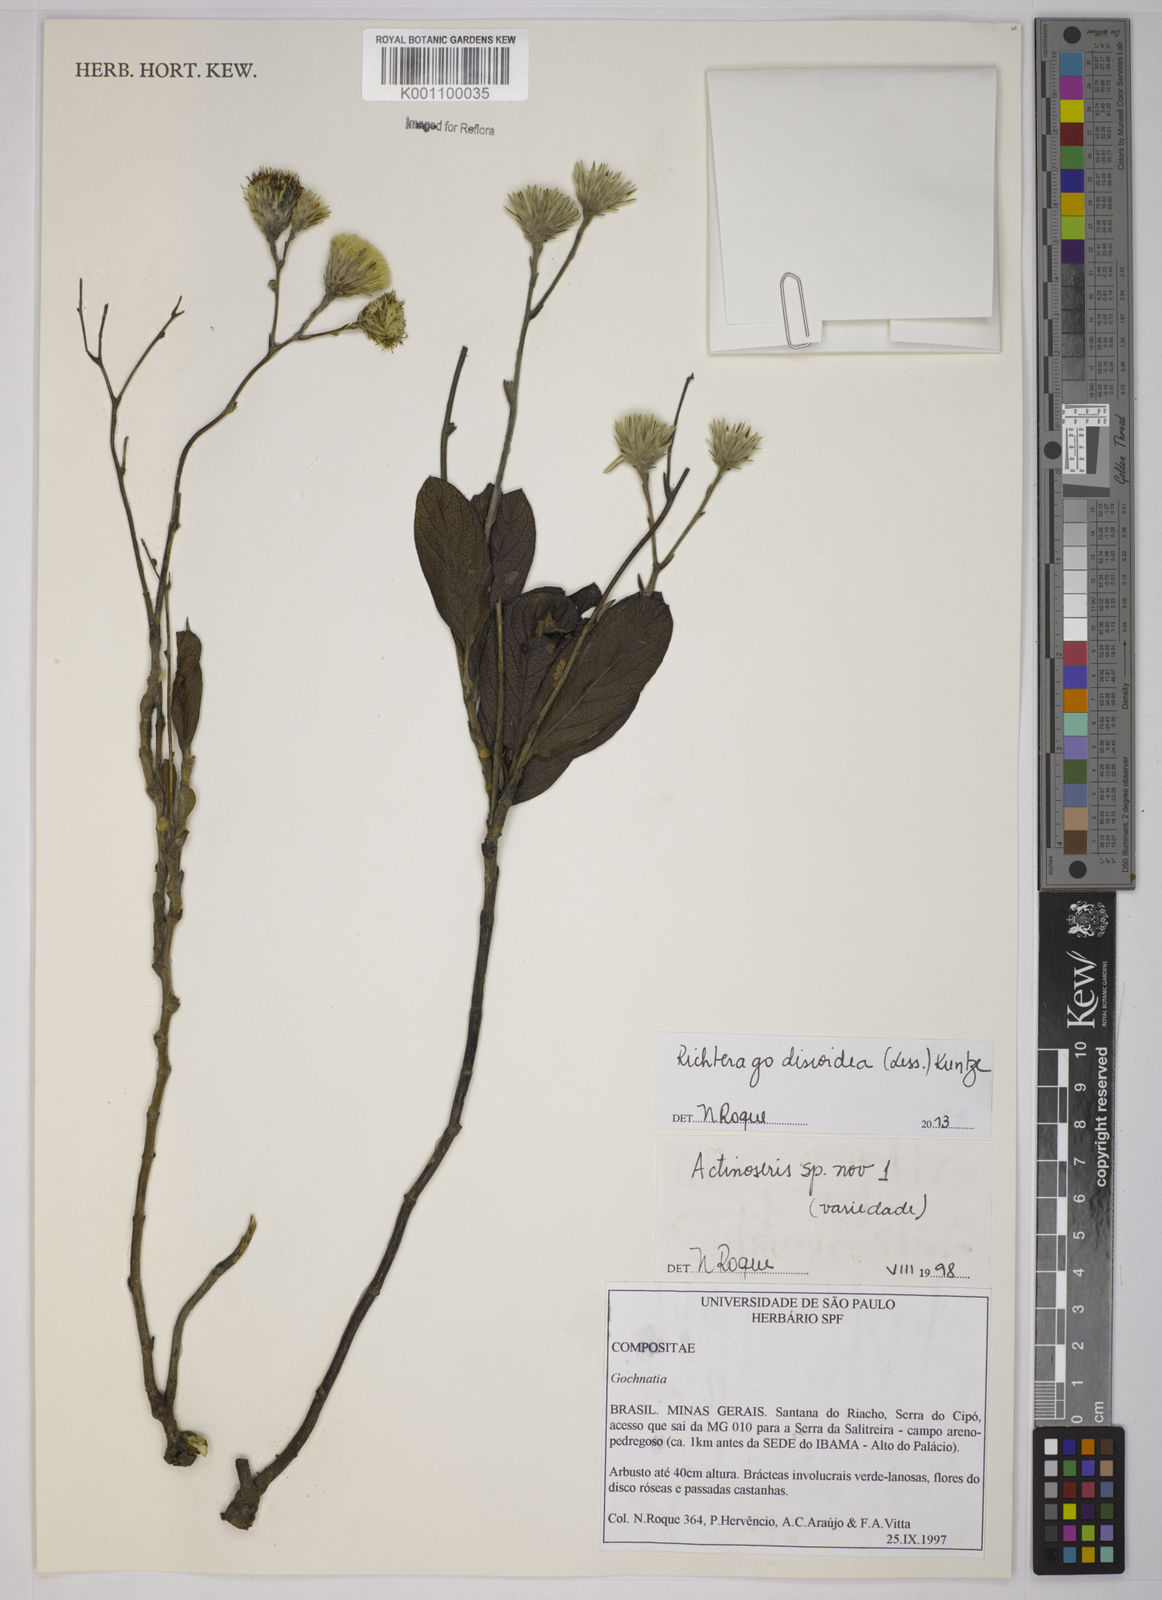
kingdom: Plantae
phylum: Tracheophyta
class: Magnoliopsida
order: Asterales
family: Asteraceae
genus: Richterago
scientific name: Richterago discoidea
